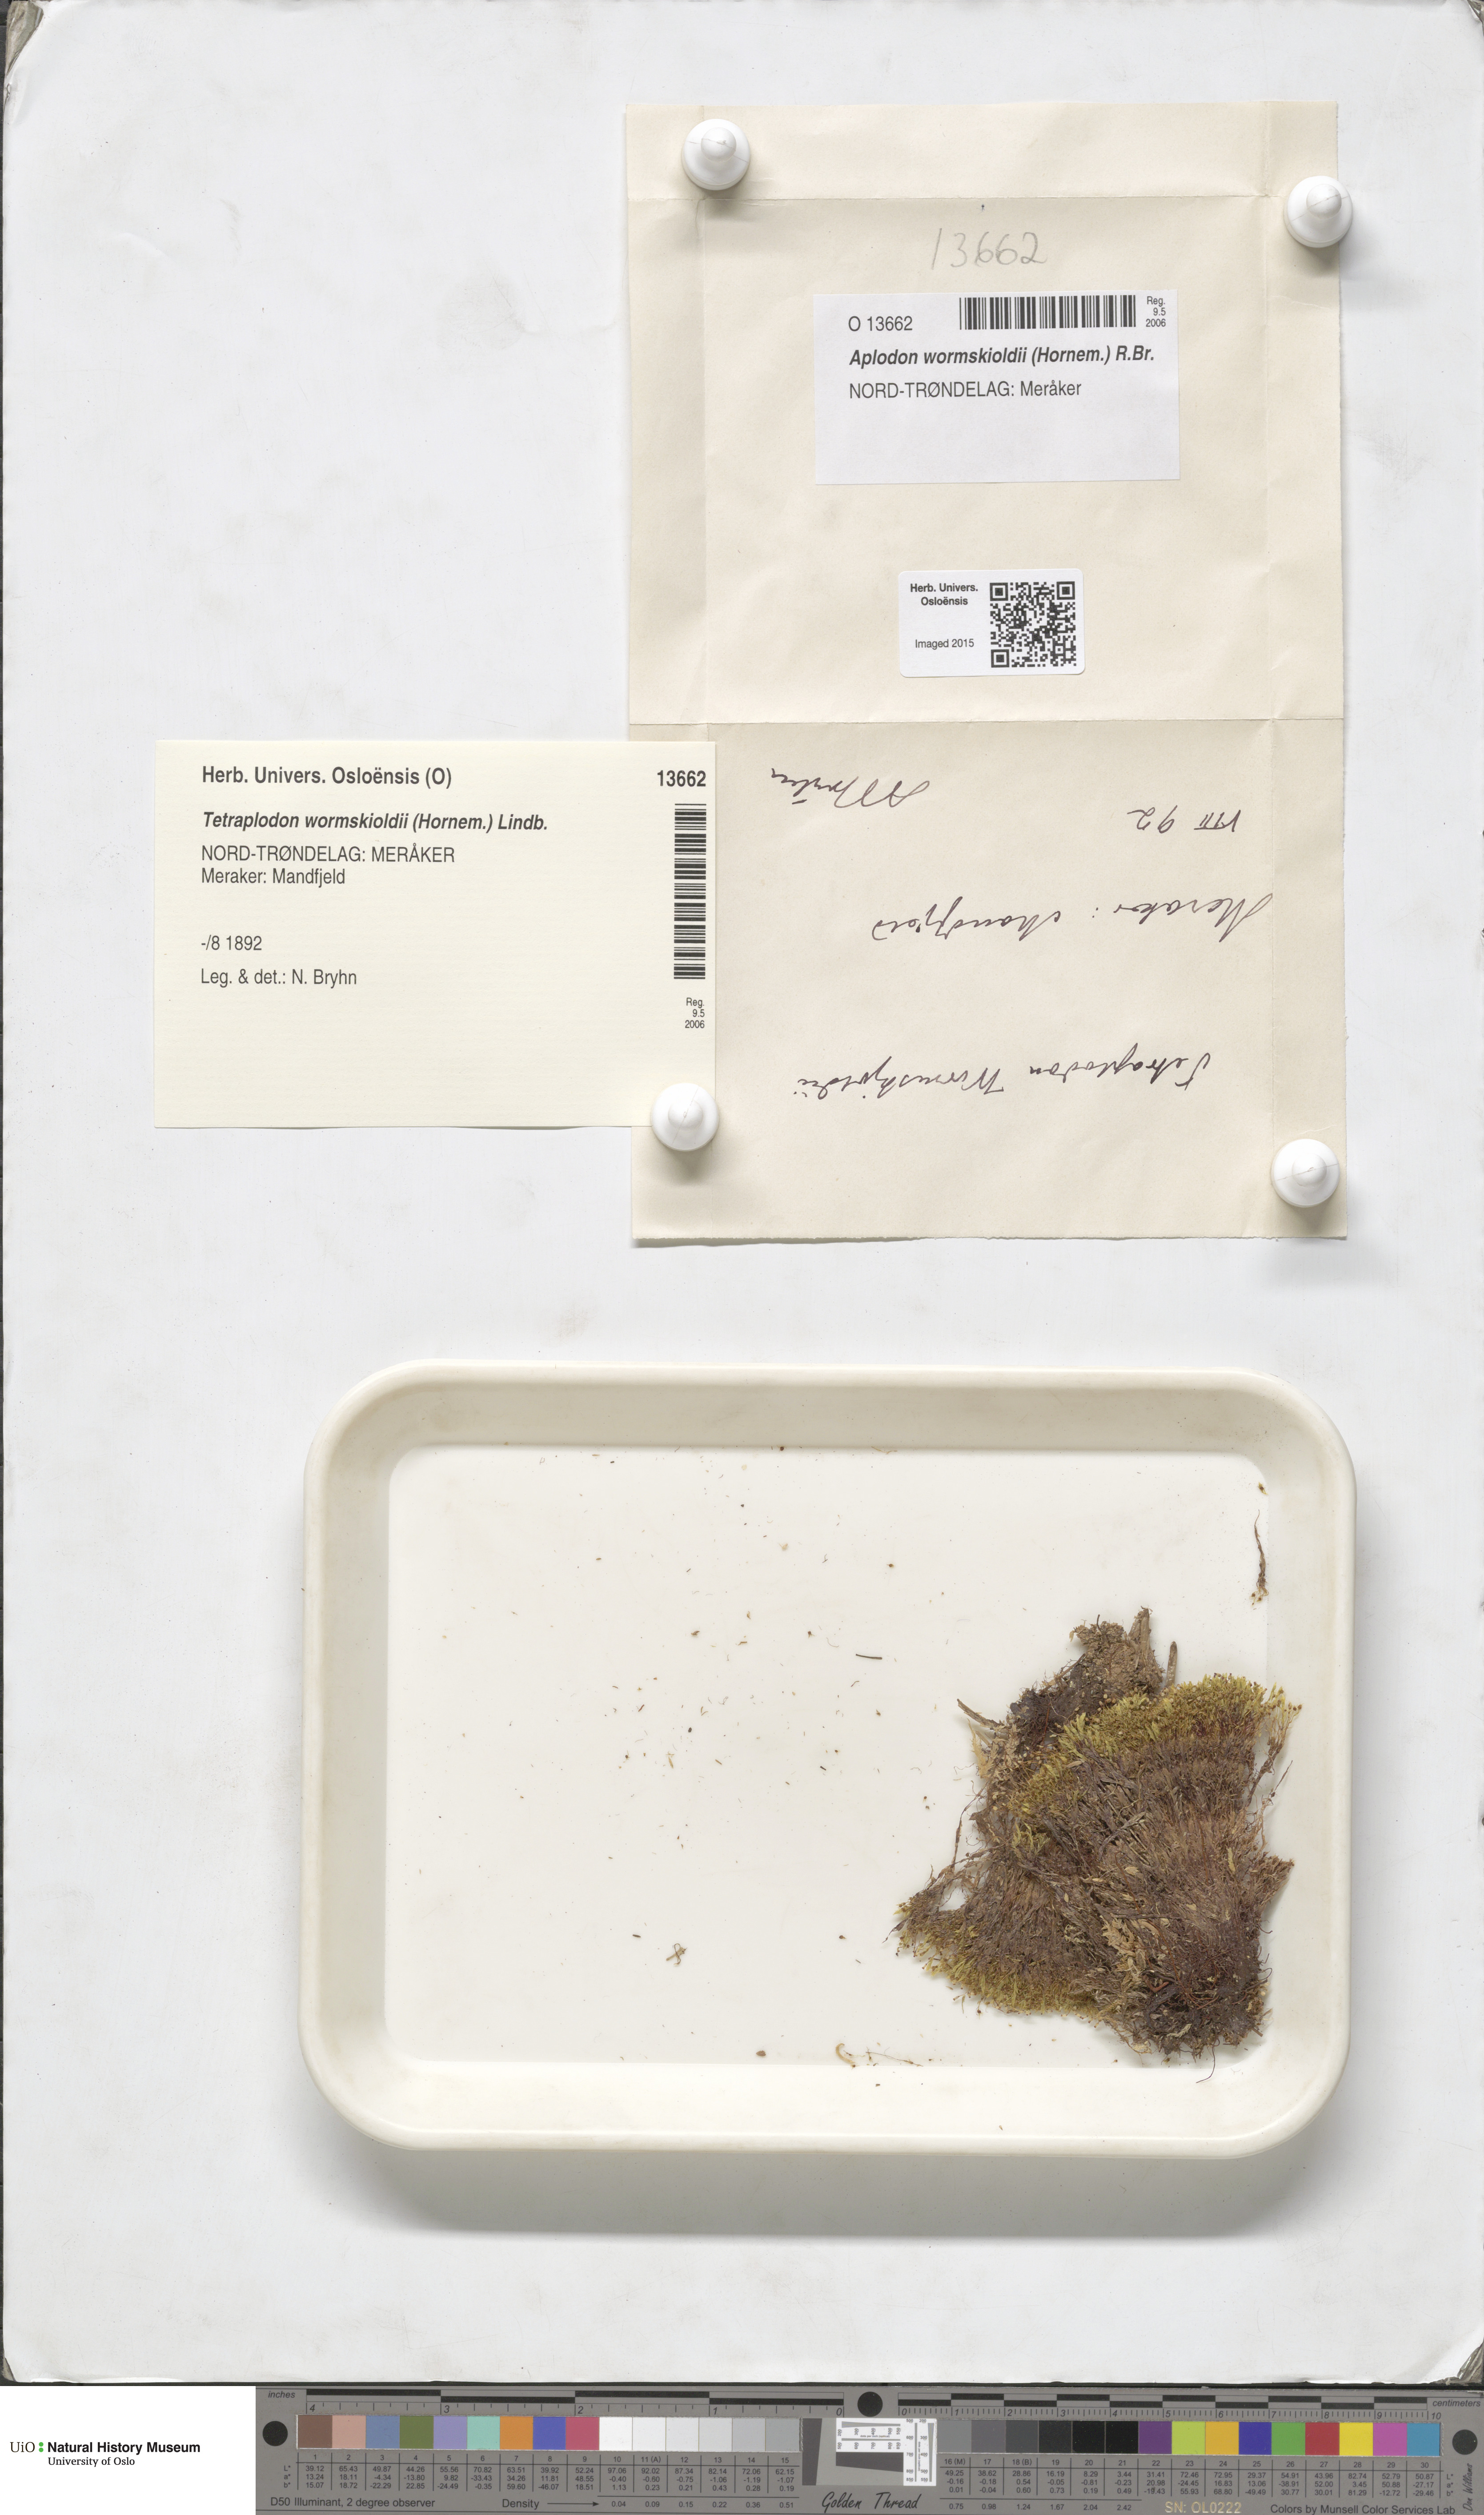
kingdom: Plantae
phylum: Bryophyta
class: Bryopsida
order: Splachnales
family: Splachnaceae
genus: Aplodon
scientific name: Aplodon wormskioldii
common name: Carrion moss
